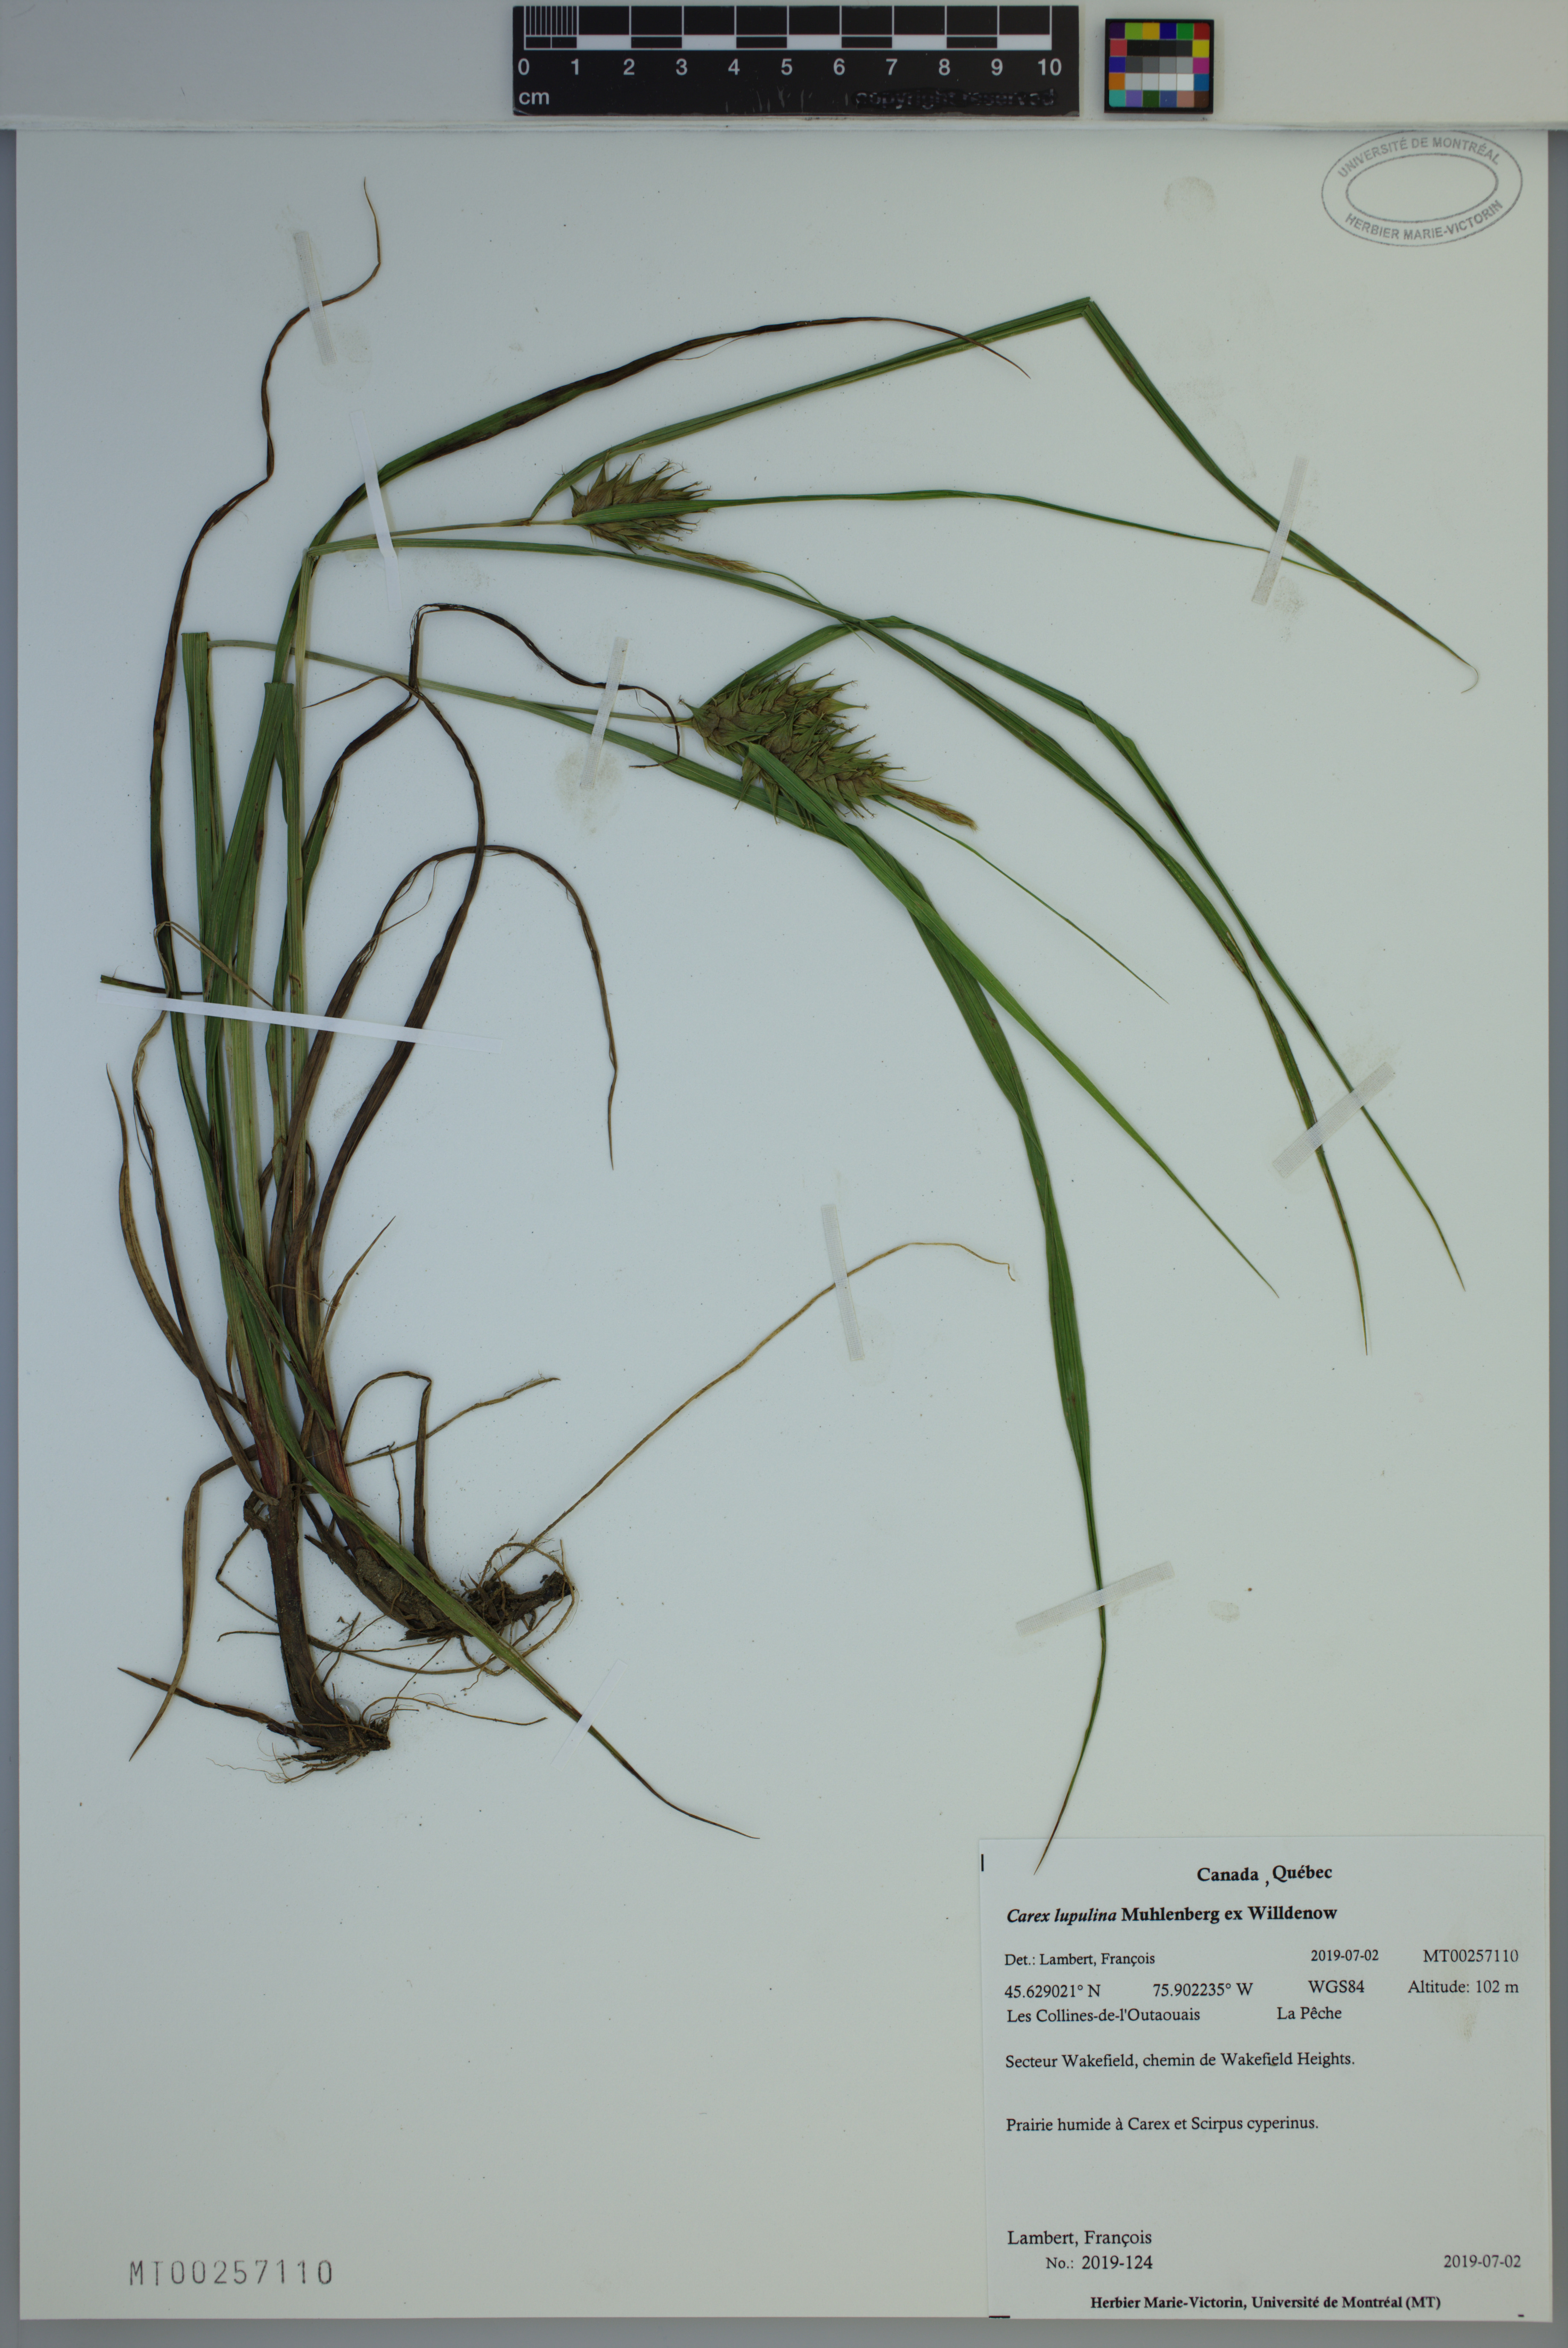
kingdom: Plantae
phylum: Tracheophyta
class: Liliopsida
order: Poales
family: Cyperaceae
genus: Carex
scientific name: Carex lupulina
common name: Hop sedge
